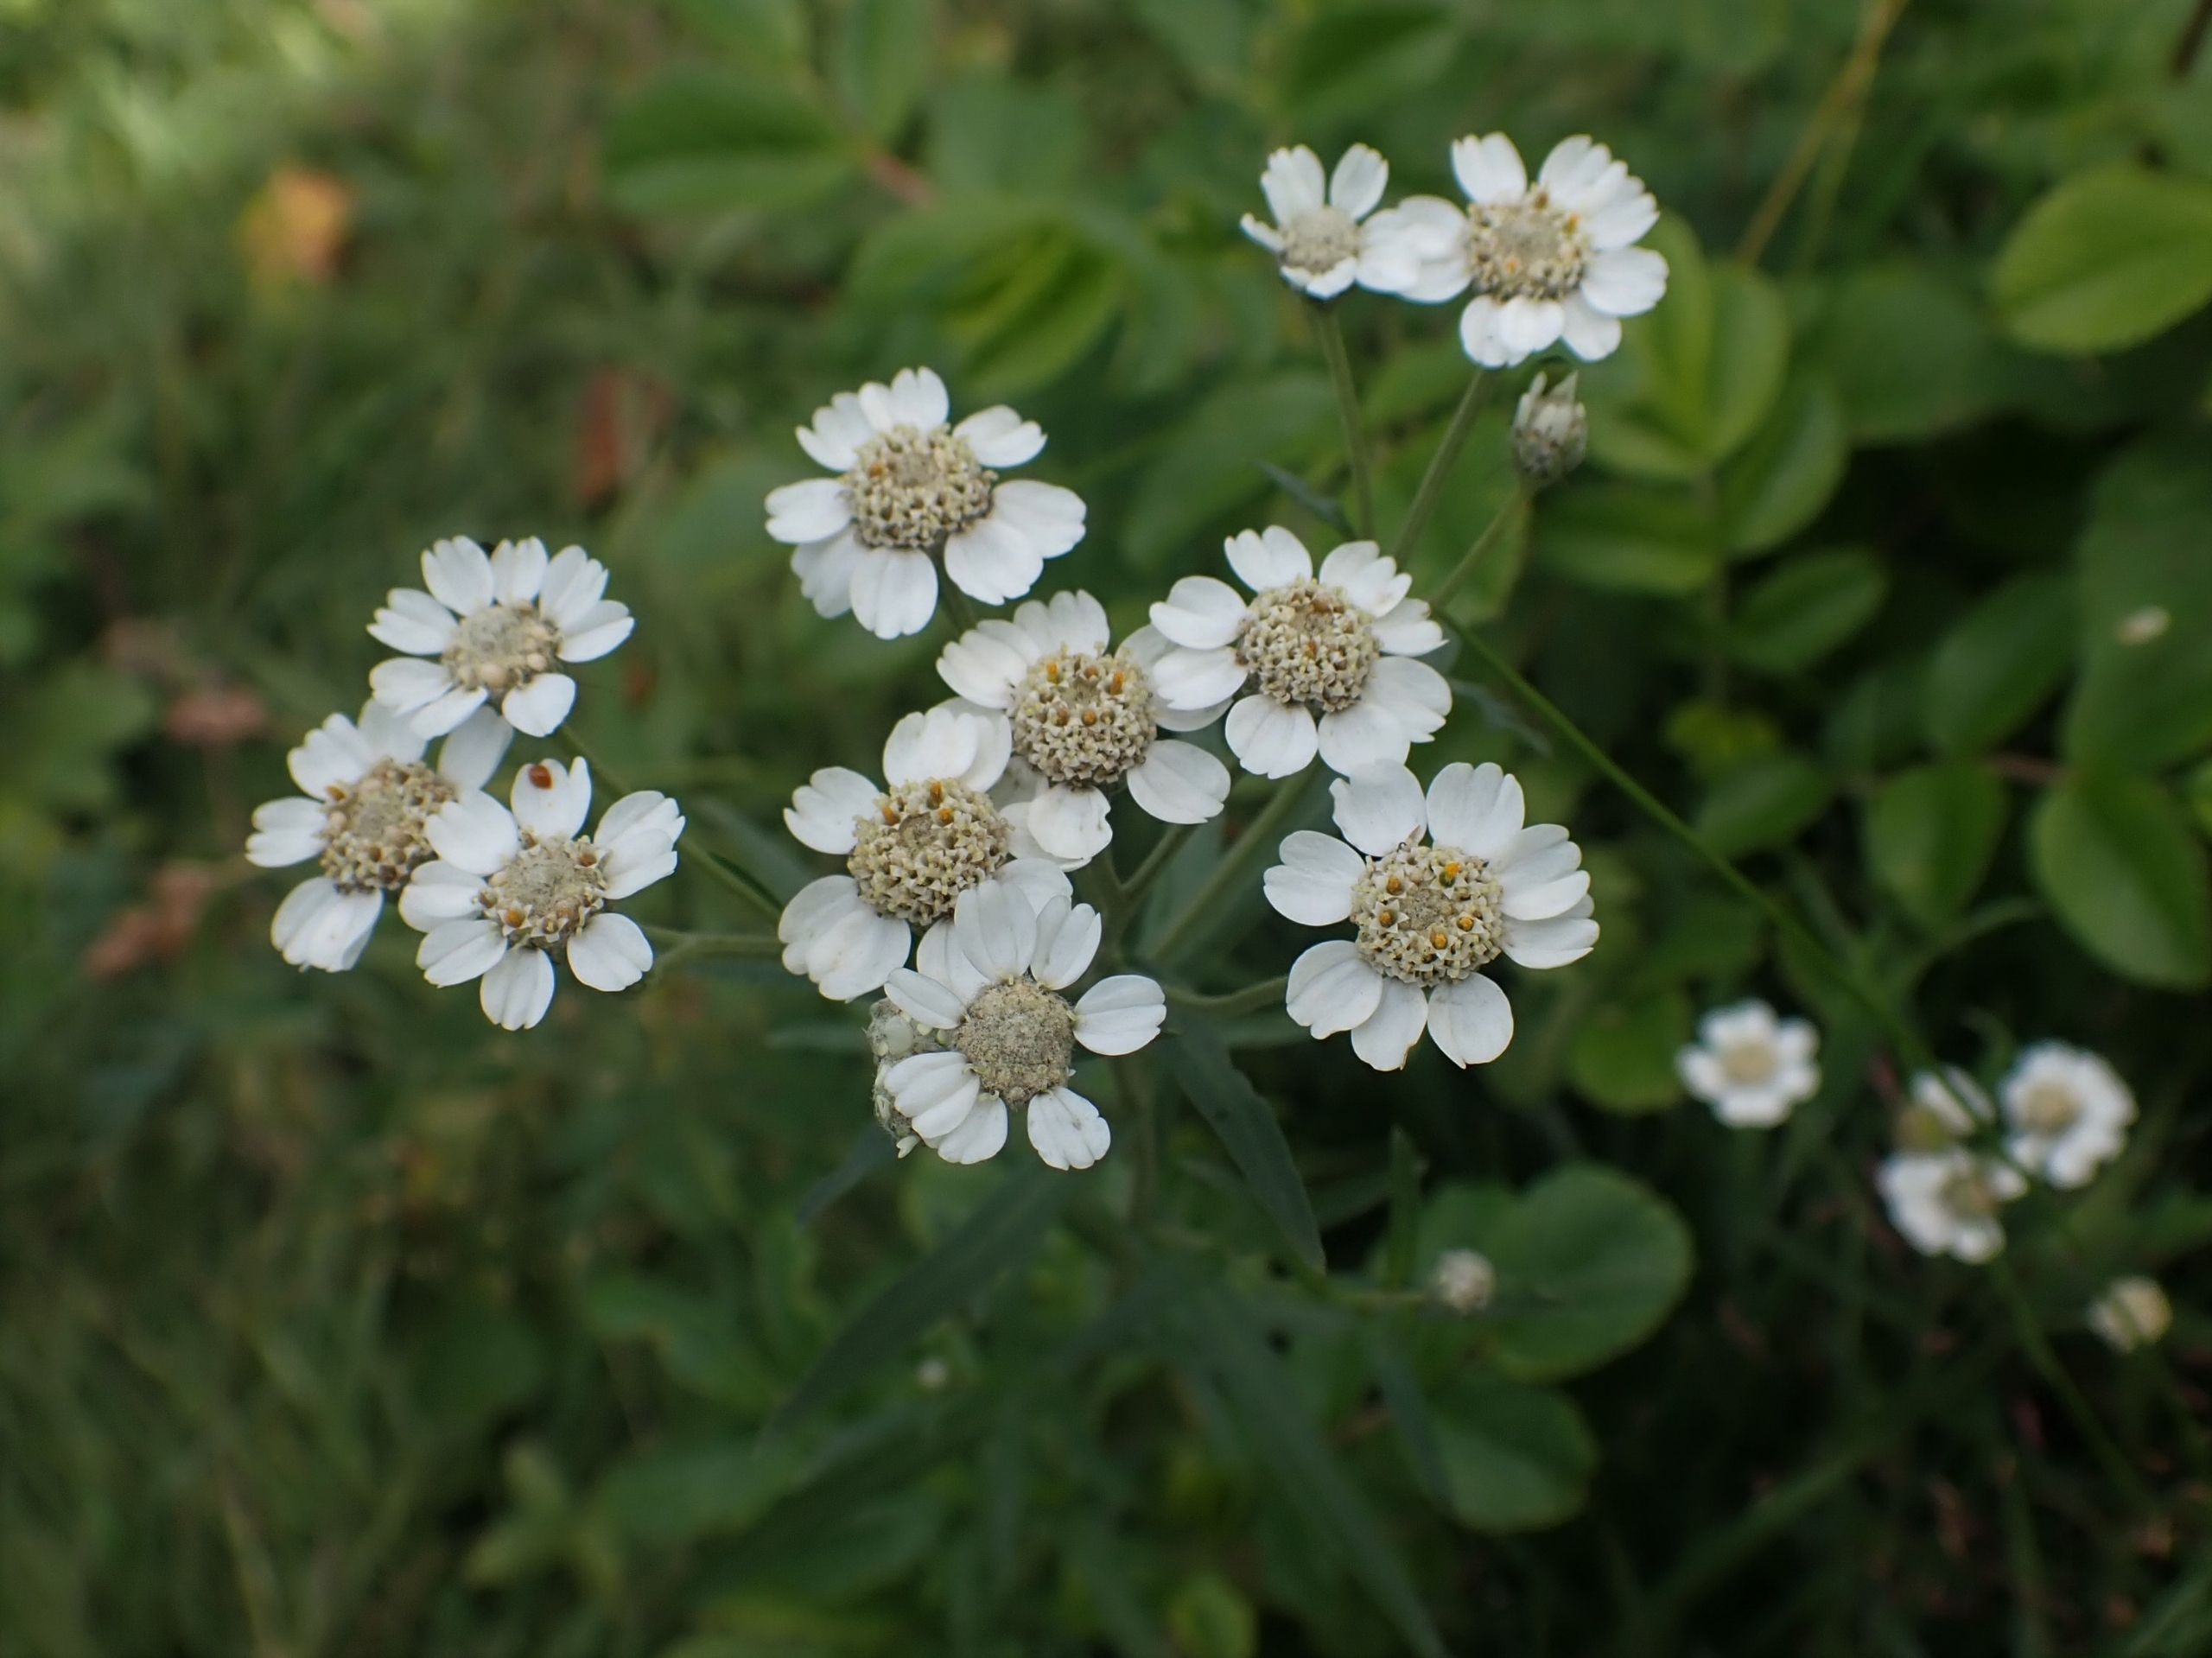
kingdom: Plantae
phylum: Tracheophyta
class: Magnoliopsida
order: Asterales
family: Asteraceae
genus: Achillea
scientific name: Achillea ptarmica
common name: Nyse-røllike
